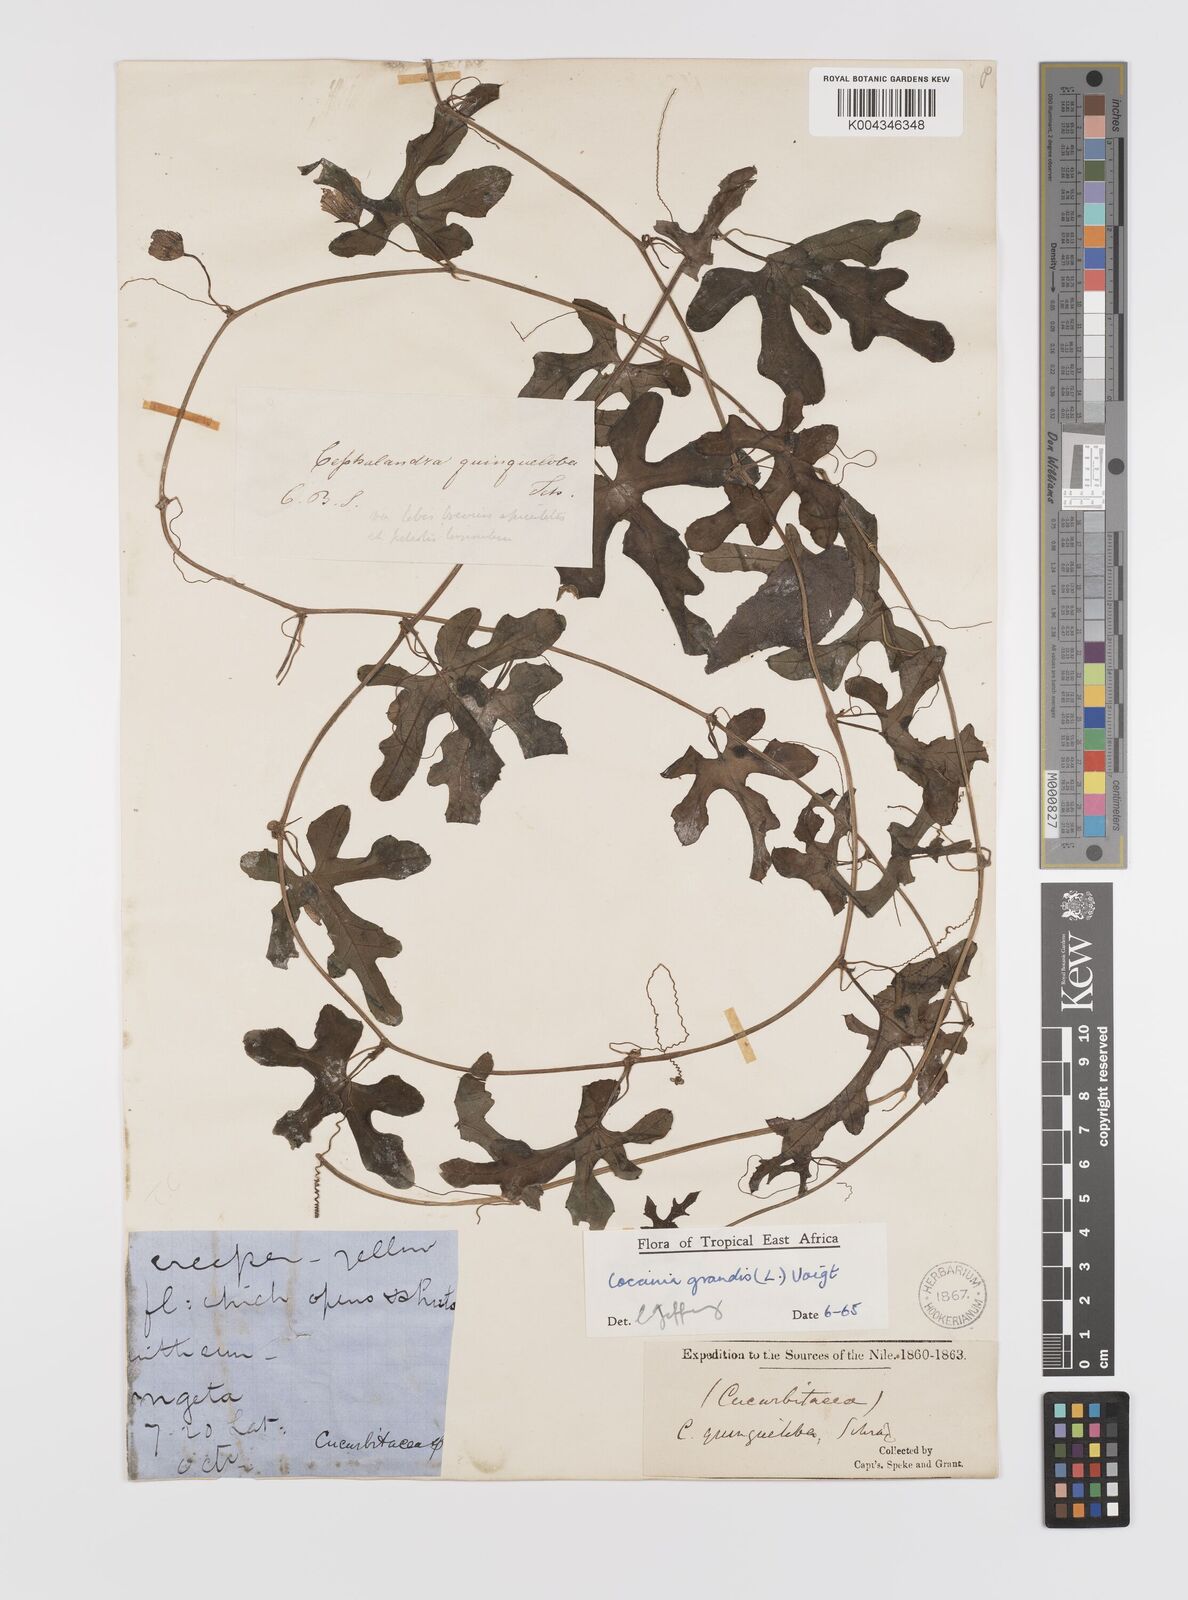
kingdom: Plantae
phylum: Tracheophyta
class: Magnoliopsida
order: Cucurbitales
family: Cucurbitaceae
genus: Coccinia
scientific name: Coccinia grandis
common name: Ivy gourd
